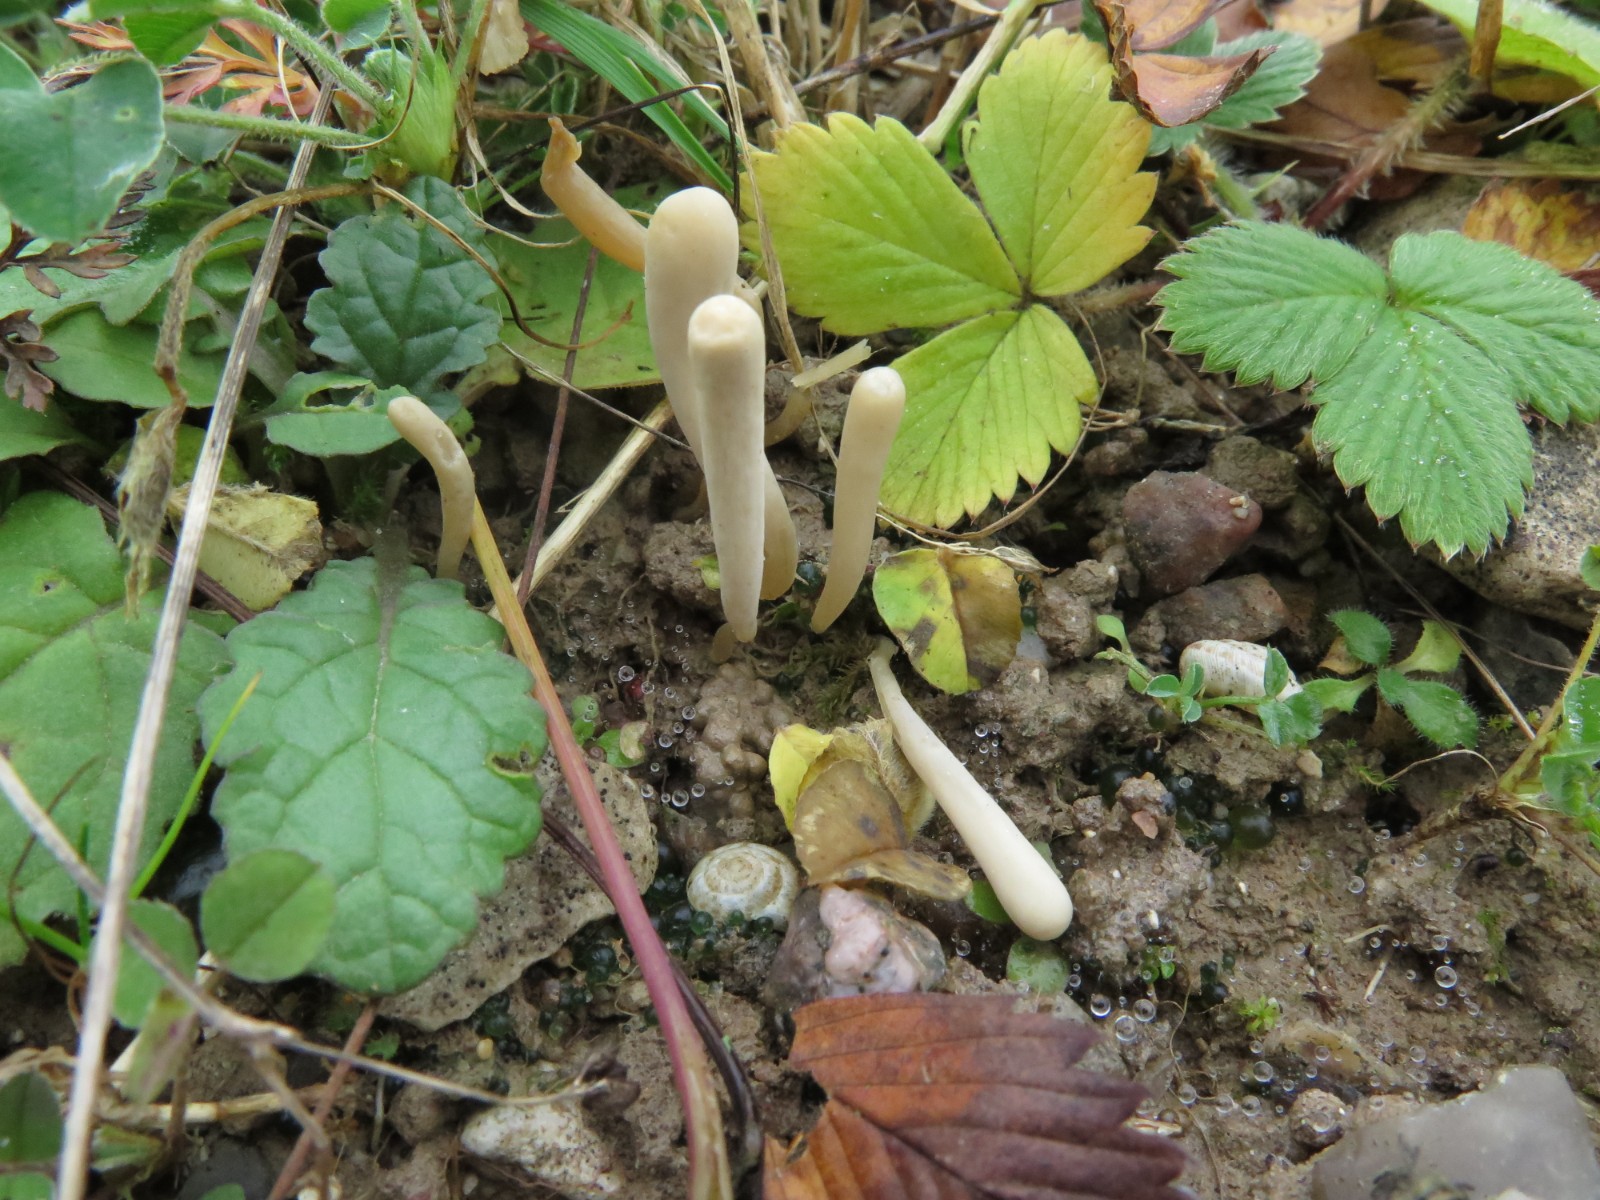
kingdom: Fungi
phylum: Basidiomycota
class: Agaricomycetes
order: Agaricales
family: Clavariaceae
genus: Clavaria
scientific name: Clavaria tenuipes
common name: isabellafarvet køllesvamp
